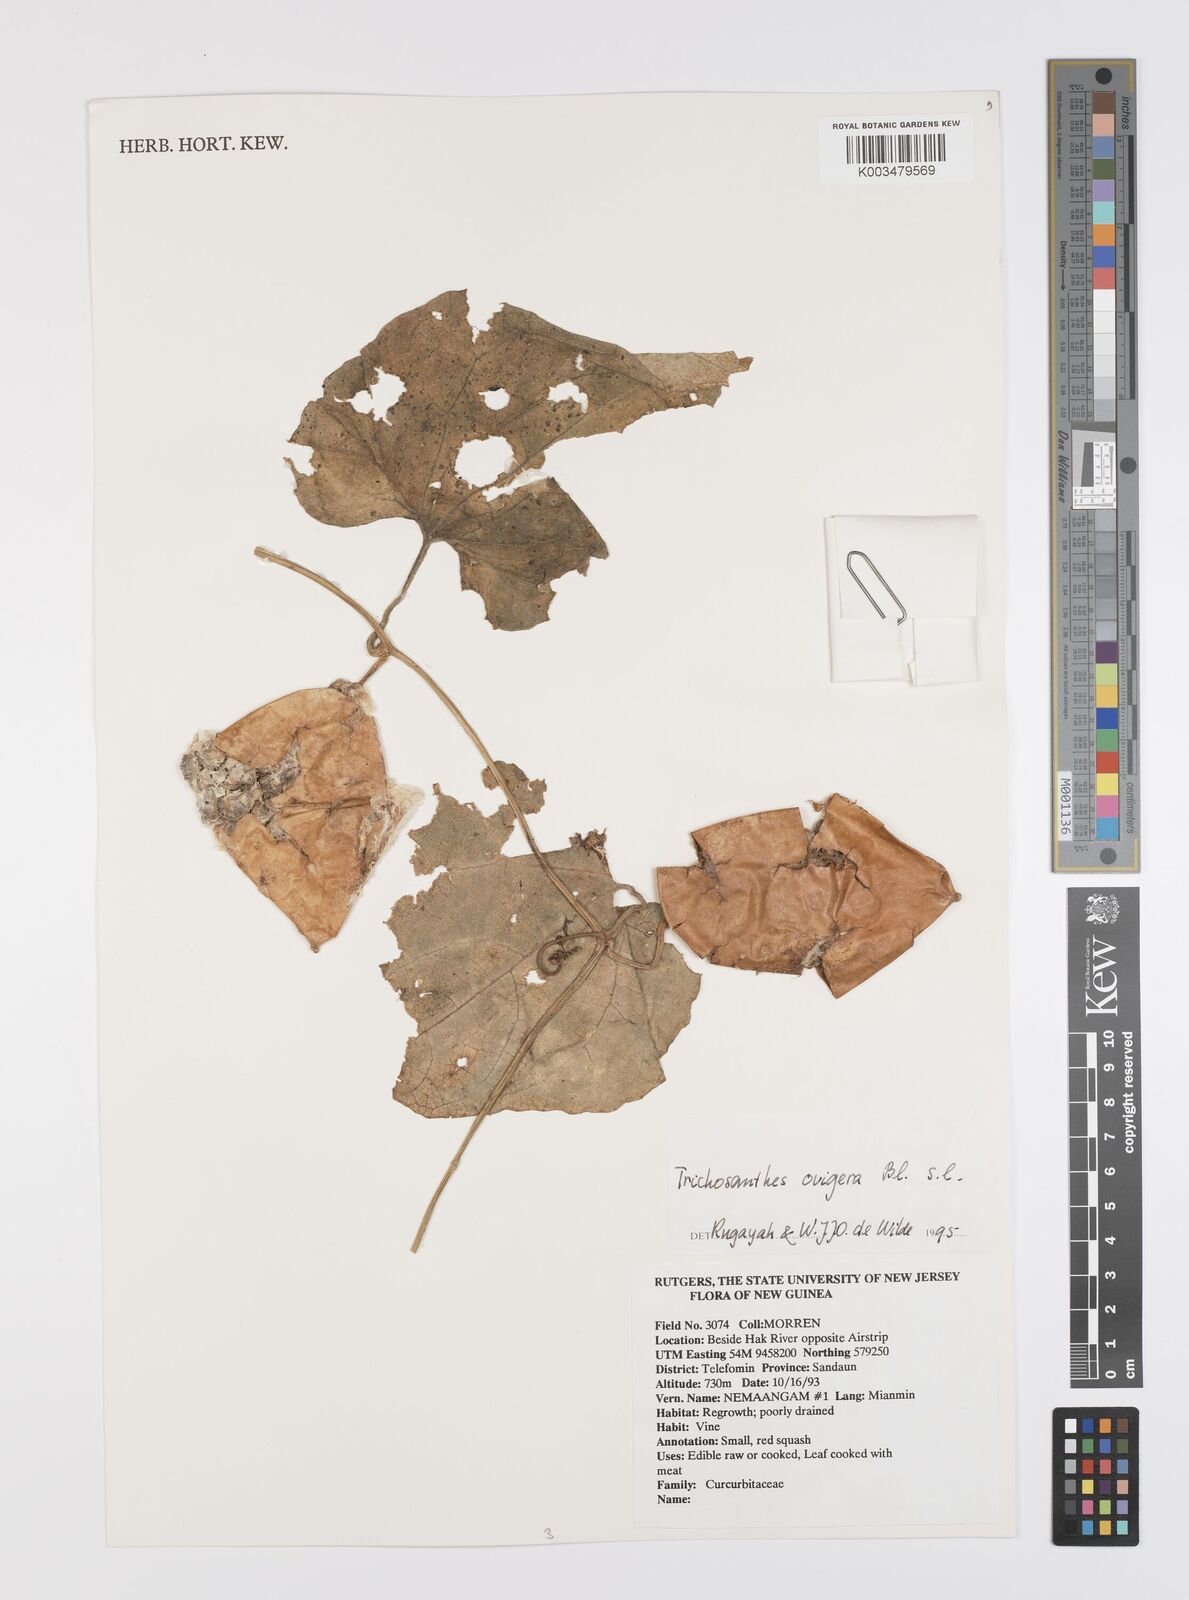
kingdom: Plantae
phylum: Tracheophyta
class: Magnoliopsida
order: Cucurbitales
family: Cucurbitaceae
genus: Trichosanthes
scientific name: Trichosanthes ovigera
